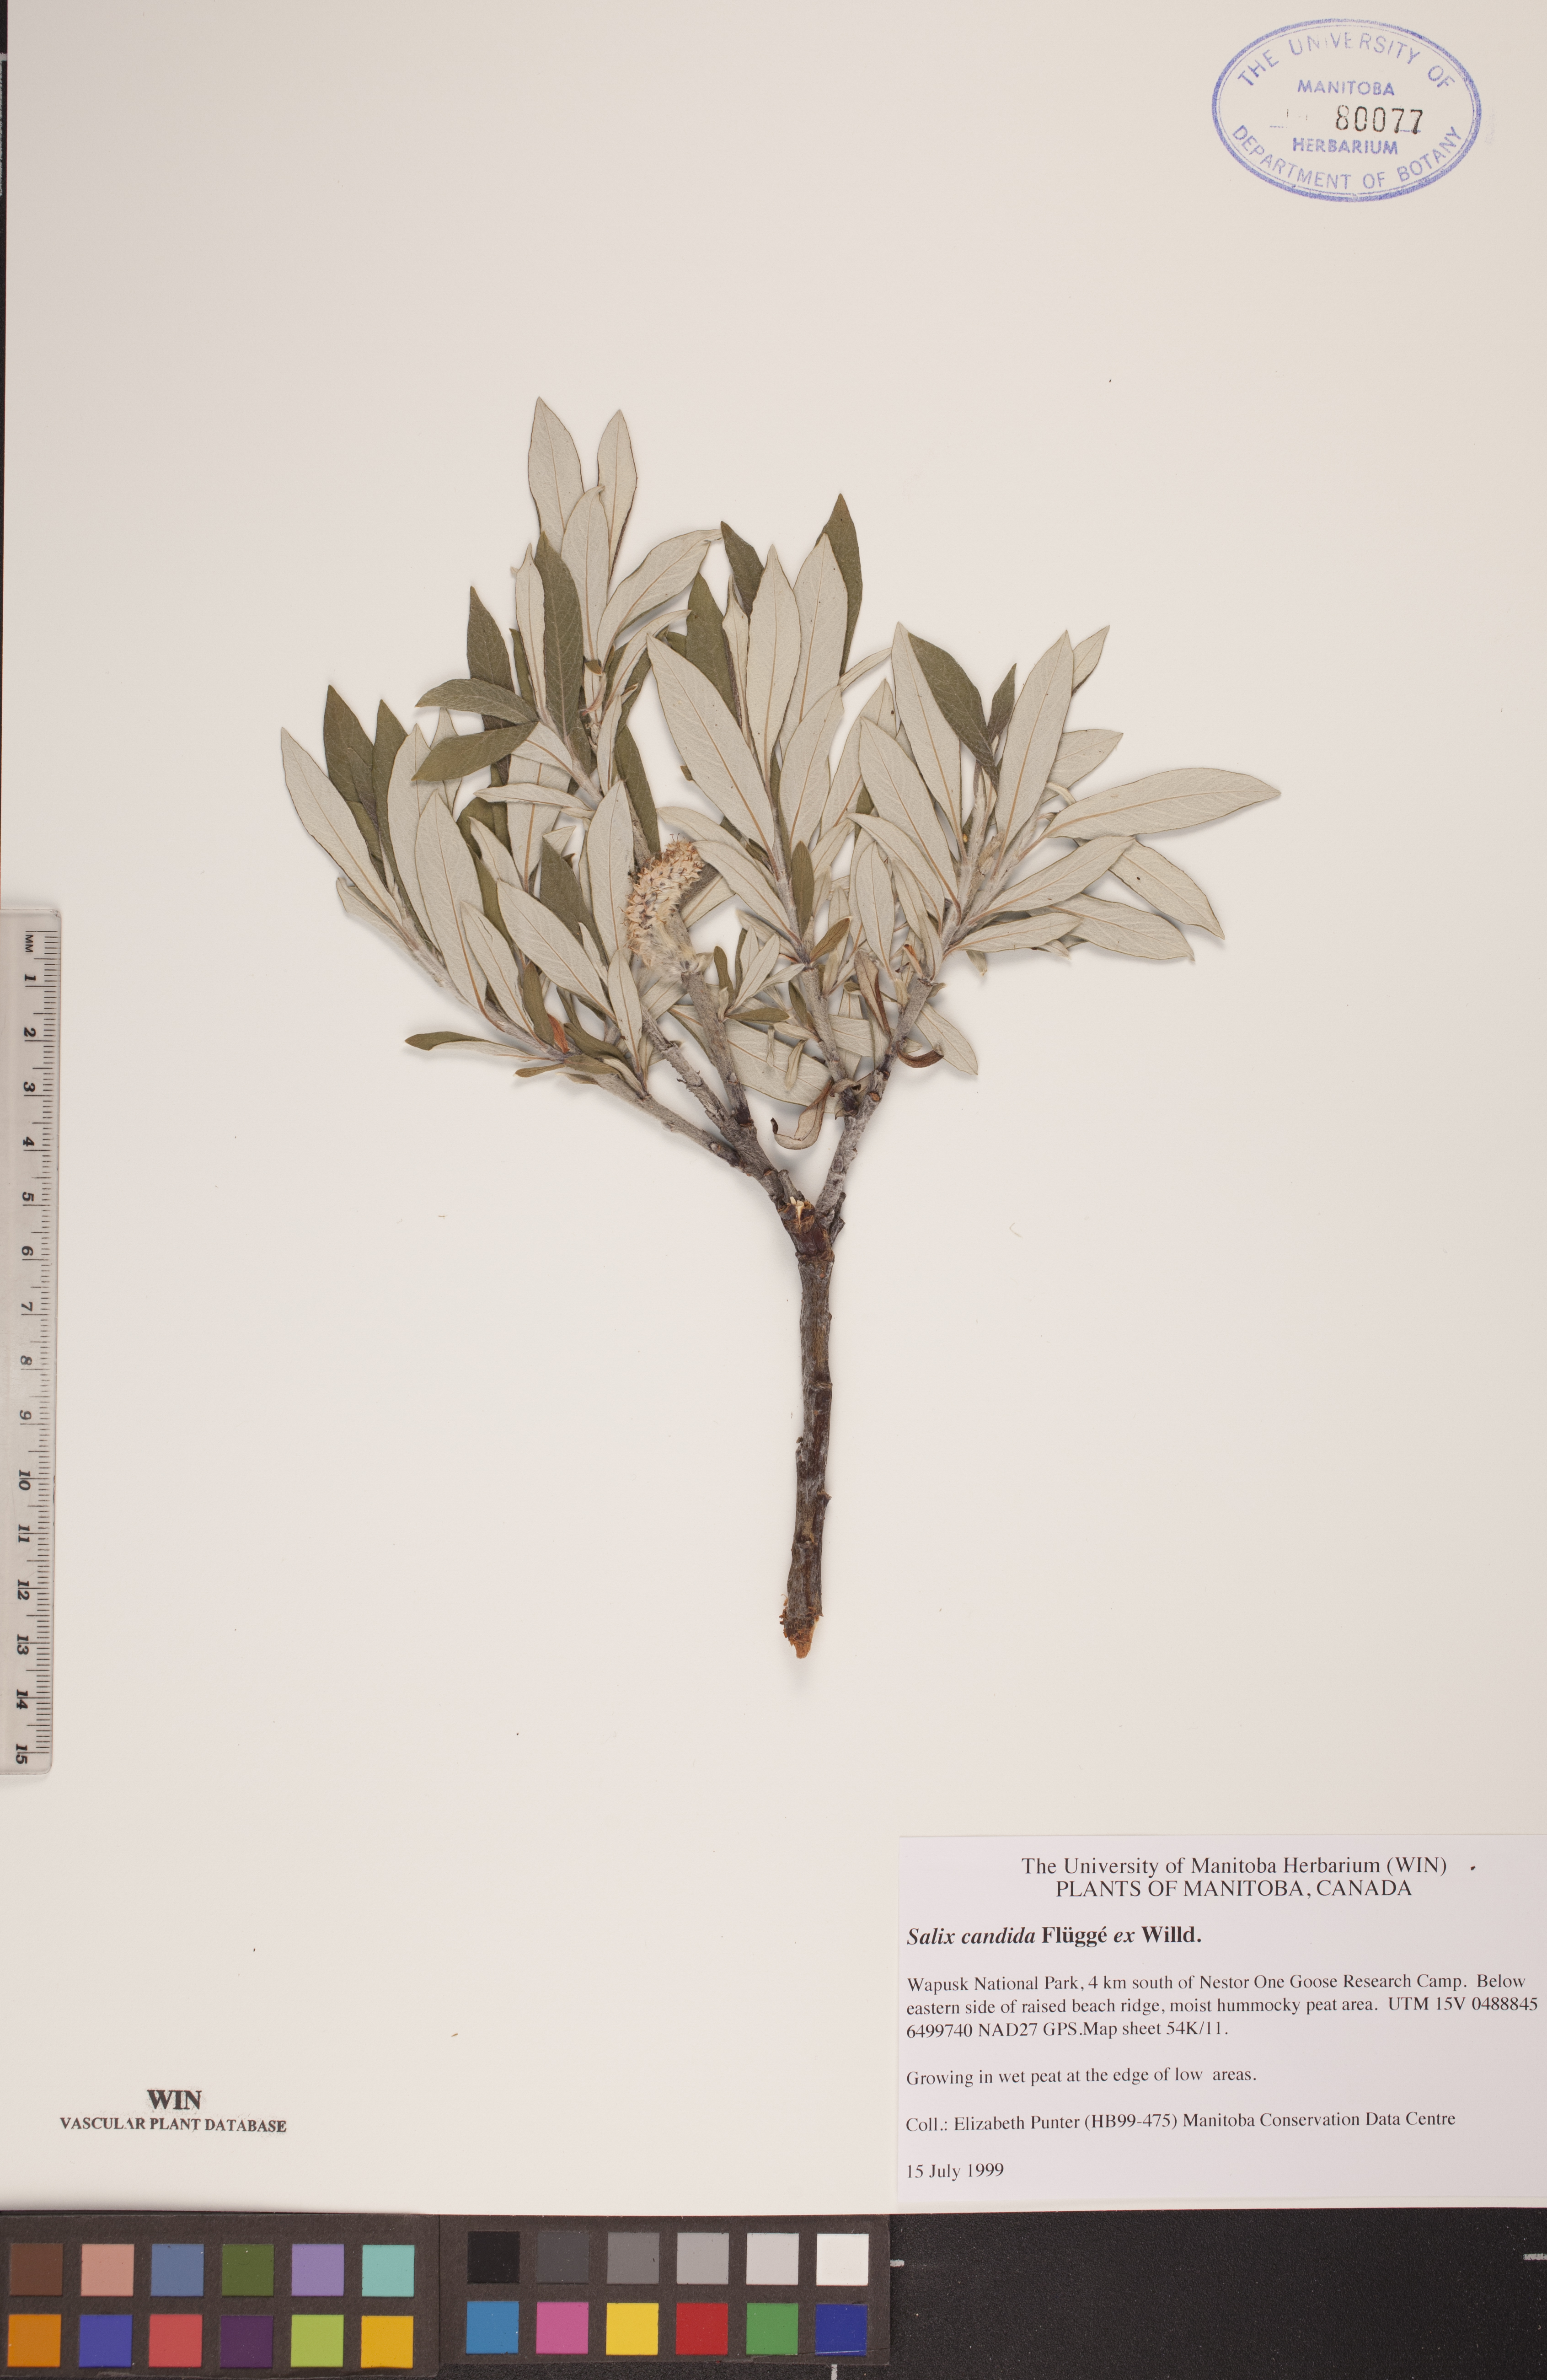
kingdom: Plantae
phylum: Tracheophyta
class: Magnoliopsida
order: Malpighiales
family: Salicaceae
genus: Salix
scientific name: Salix candida
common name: Hoary willow
